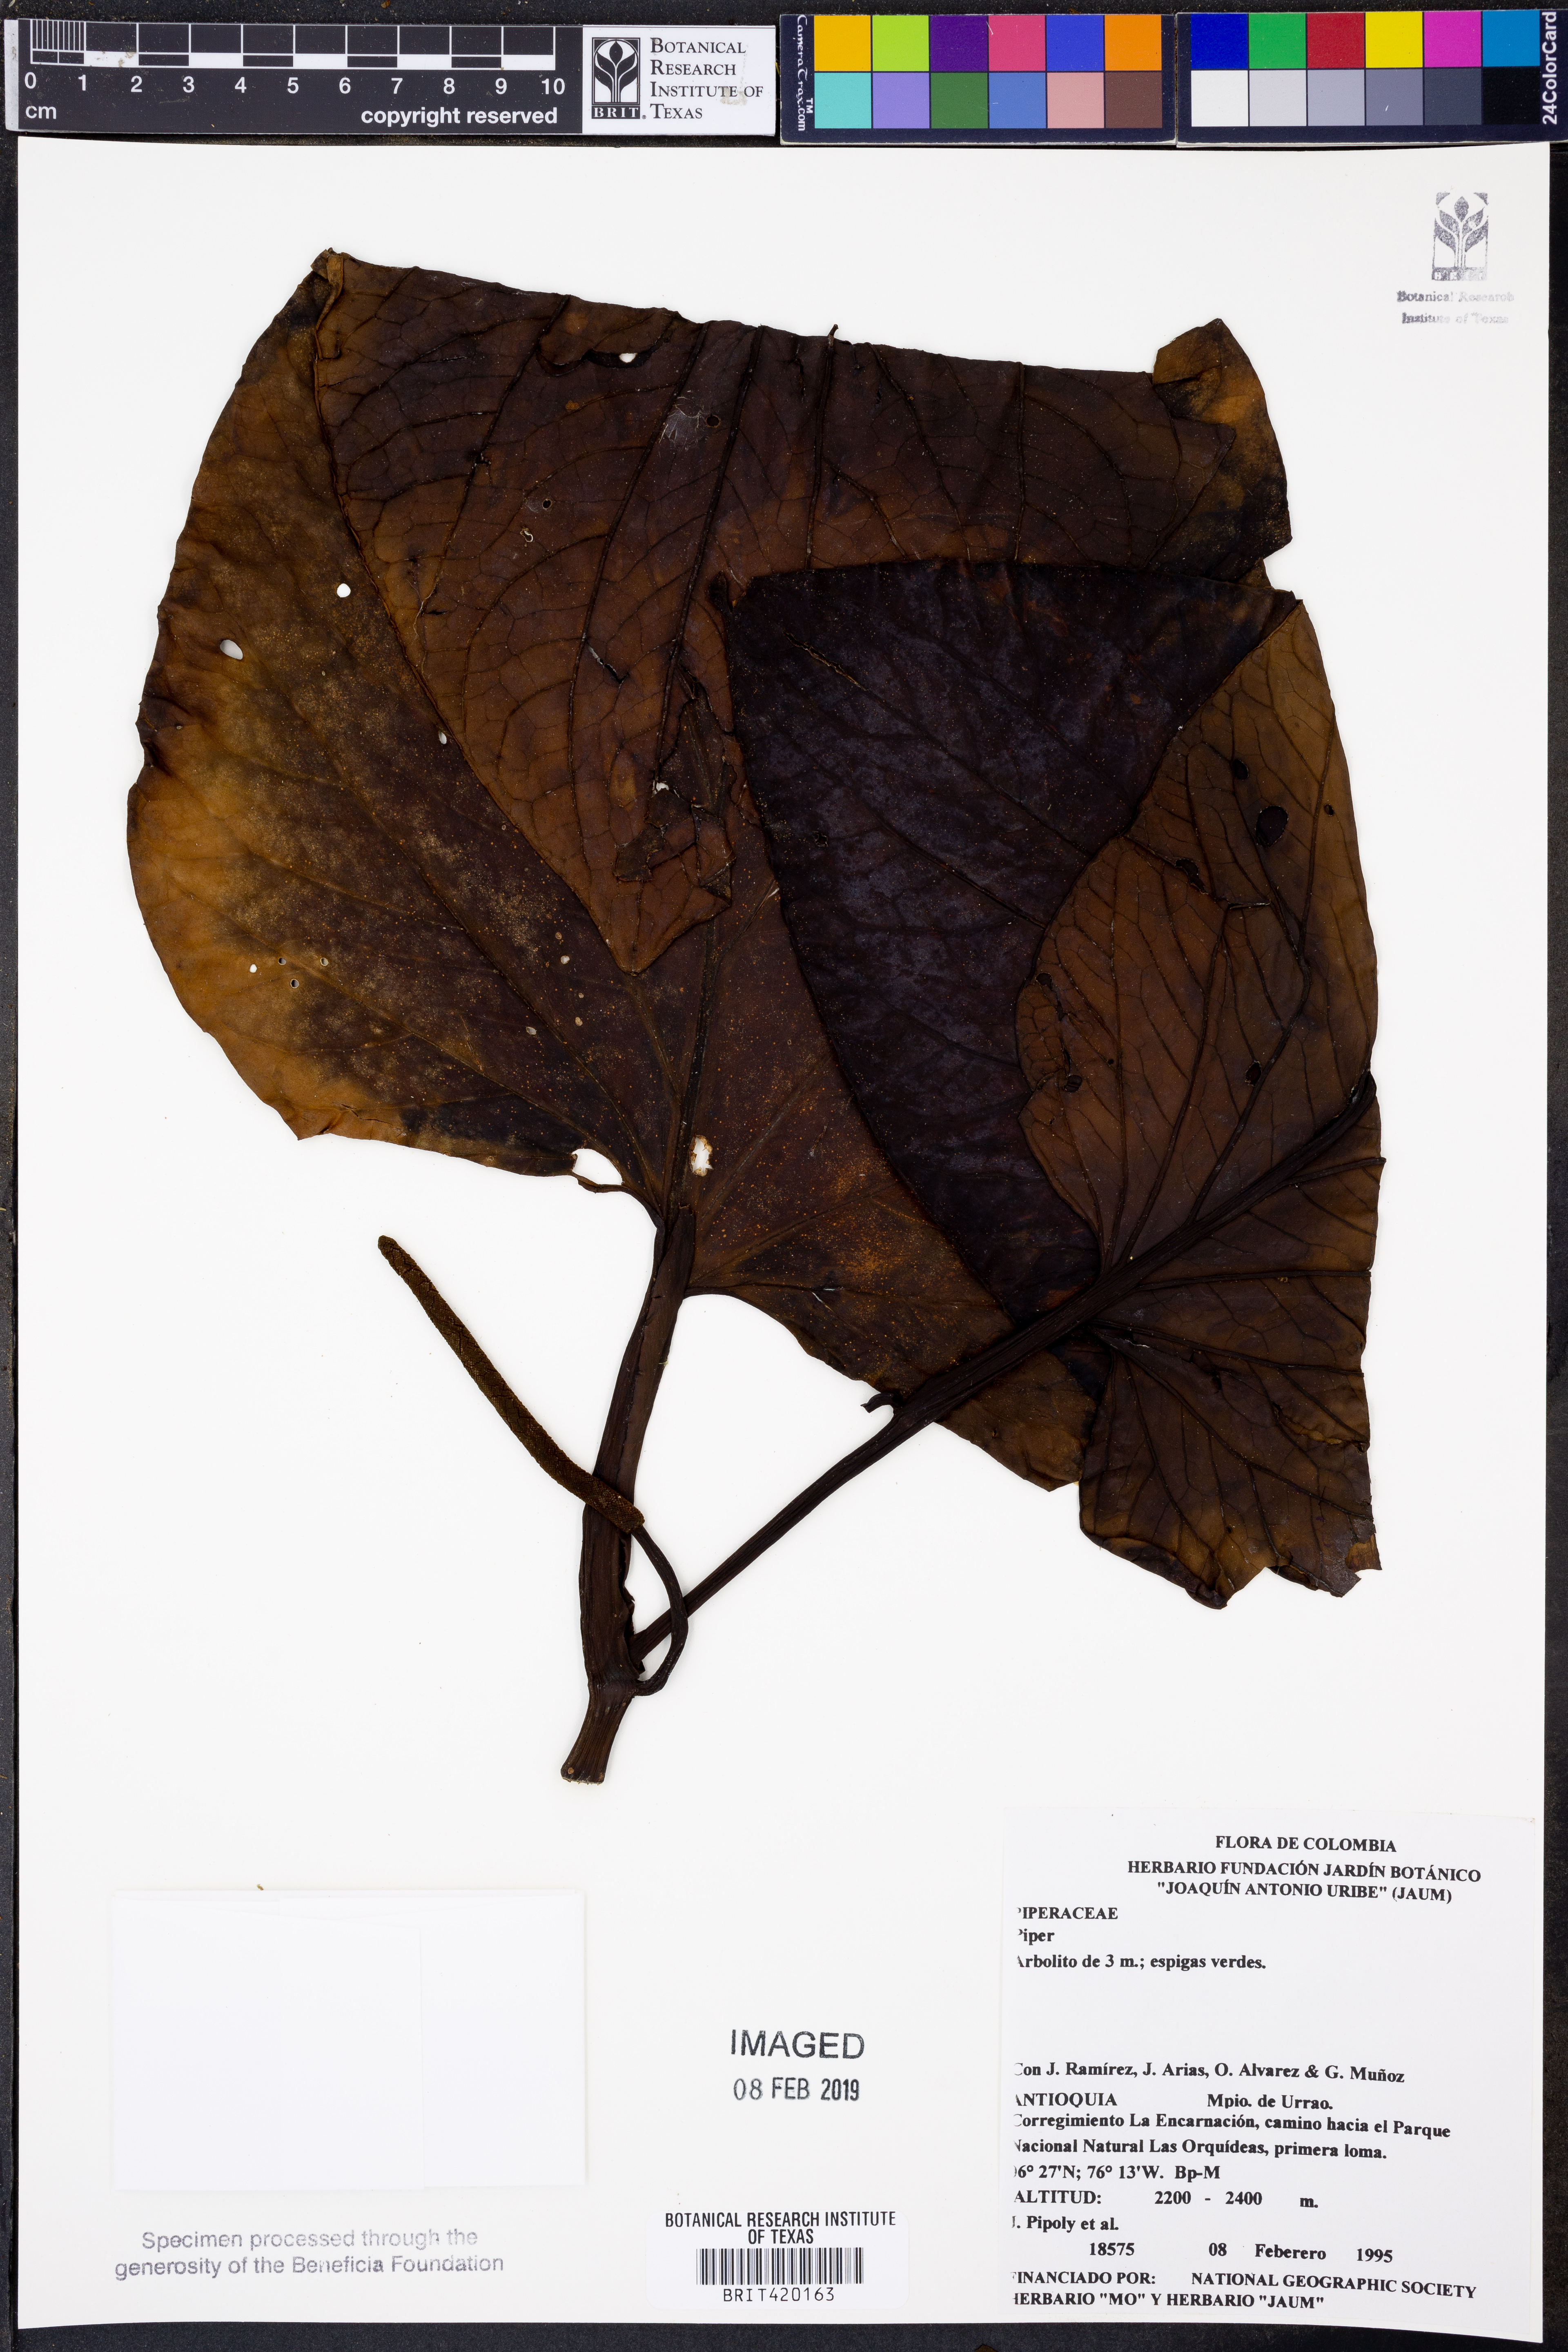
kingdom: Plantae
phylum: Tracheophyta
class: Magnoliopsida
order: Piperales
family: Piperaceae
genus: Piper
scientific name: Piper
